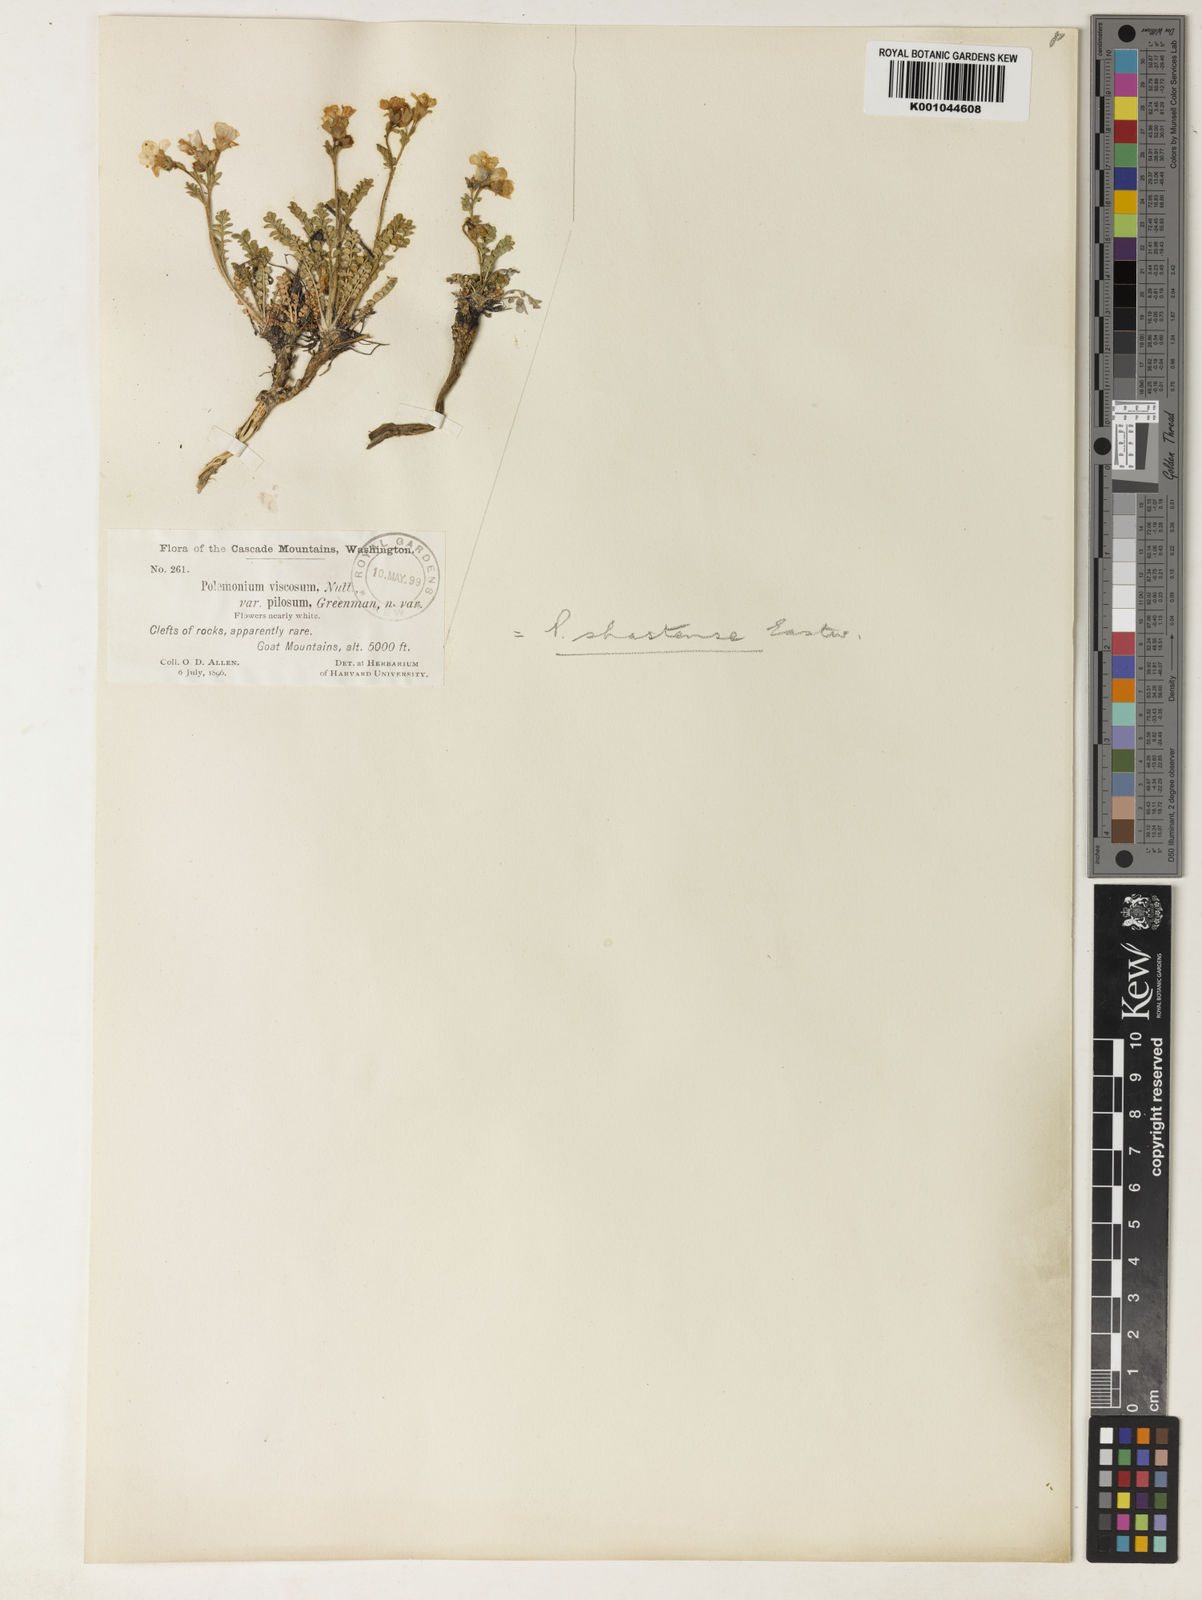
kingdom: Plantae
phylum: Tracheophyta
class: Magnoliopsida
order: Ericales
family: Polemoniaceae
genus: Polemonium
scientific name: Polemonium pulcherrimum
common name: Short jacob's-ladder
